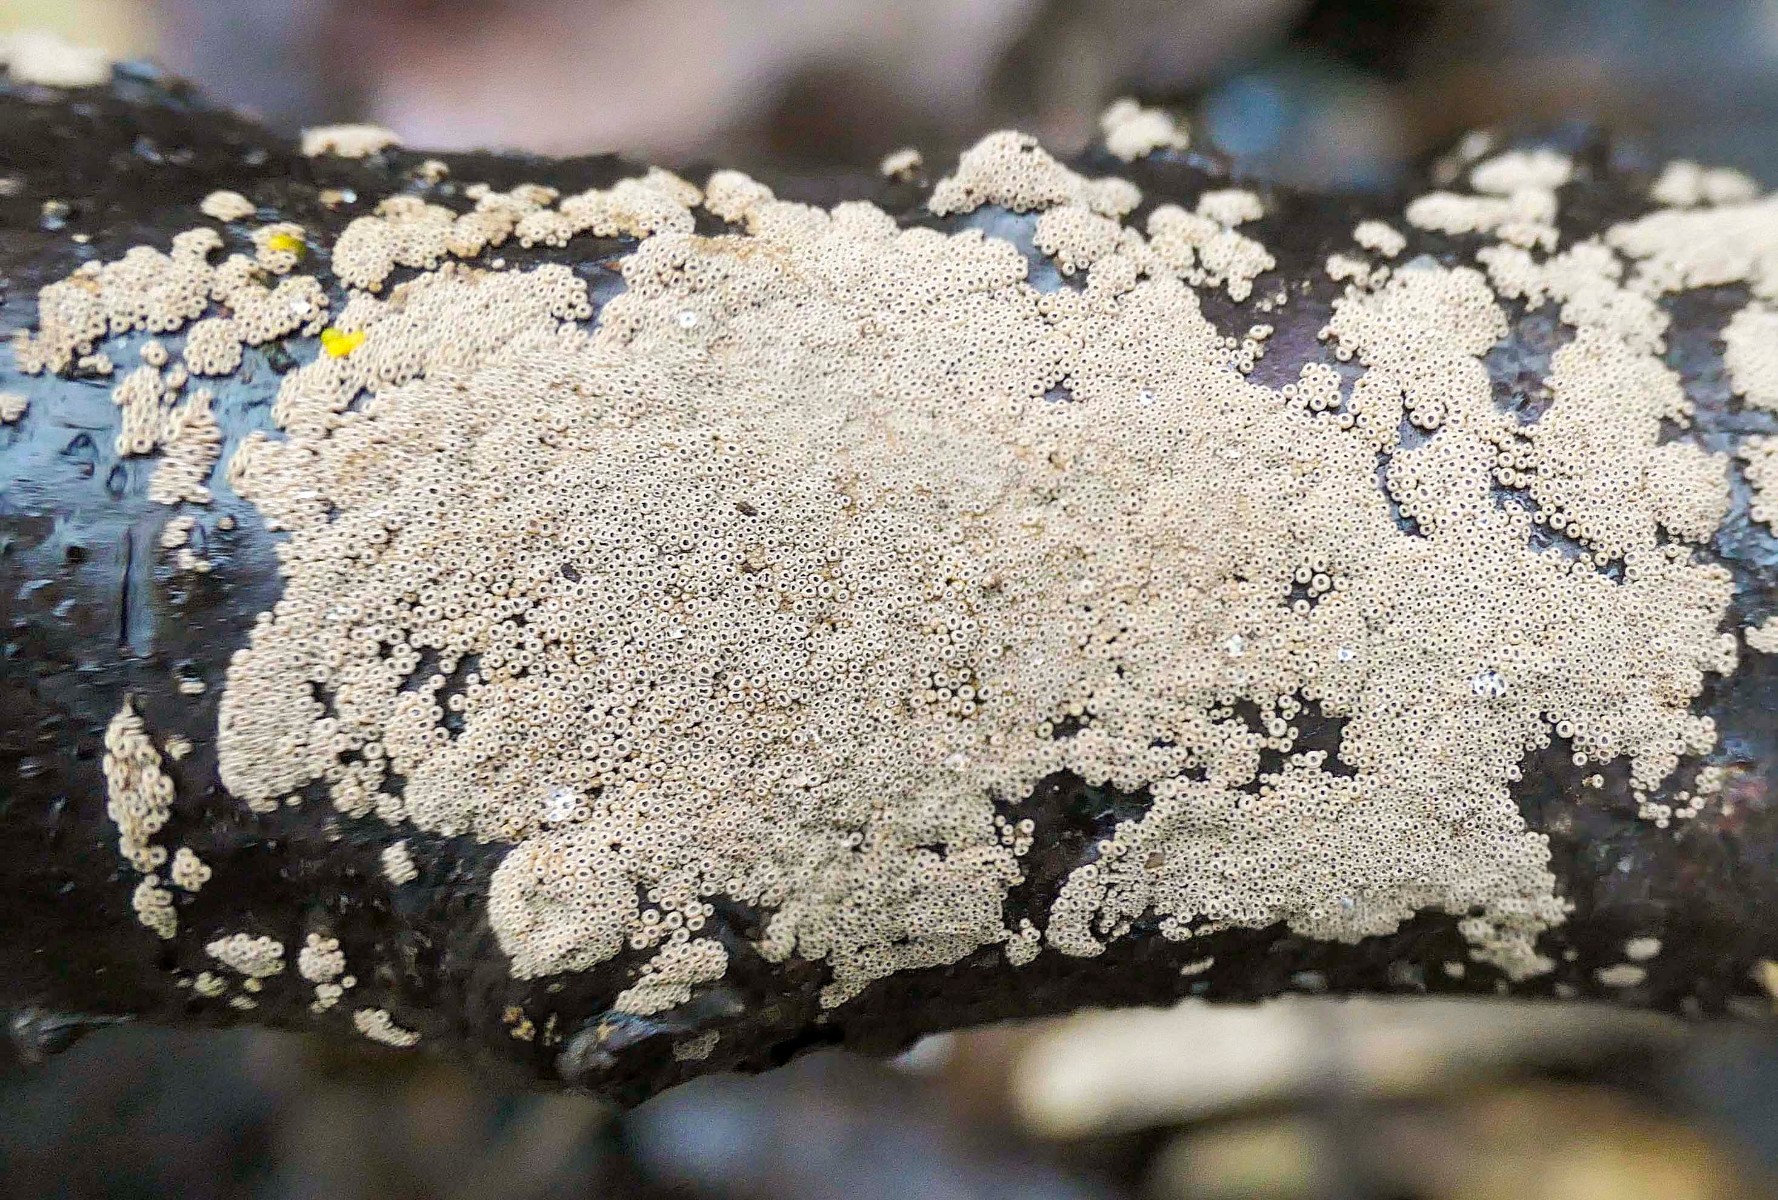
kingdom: Fungi
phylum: Basidiomycota
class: Agaricomycetes
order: Agaricales
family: Niaceae
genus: Merismodes
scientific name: Merismodes anomala
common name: almindelig læderskål
